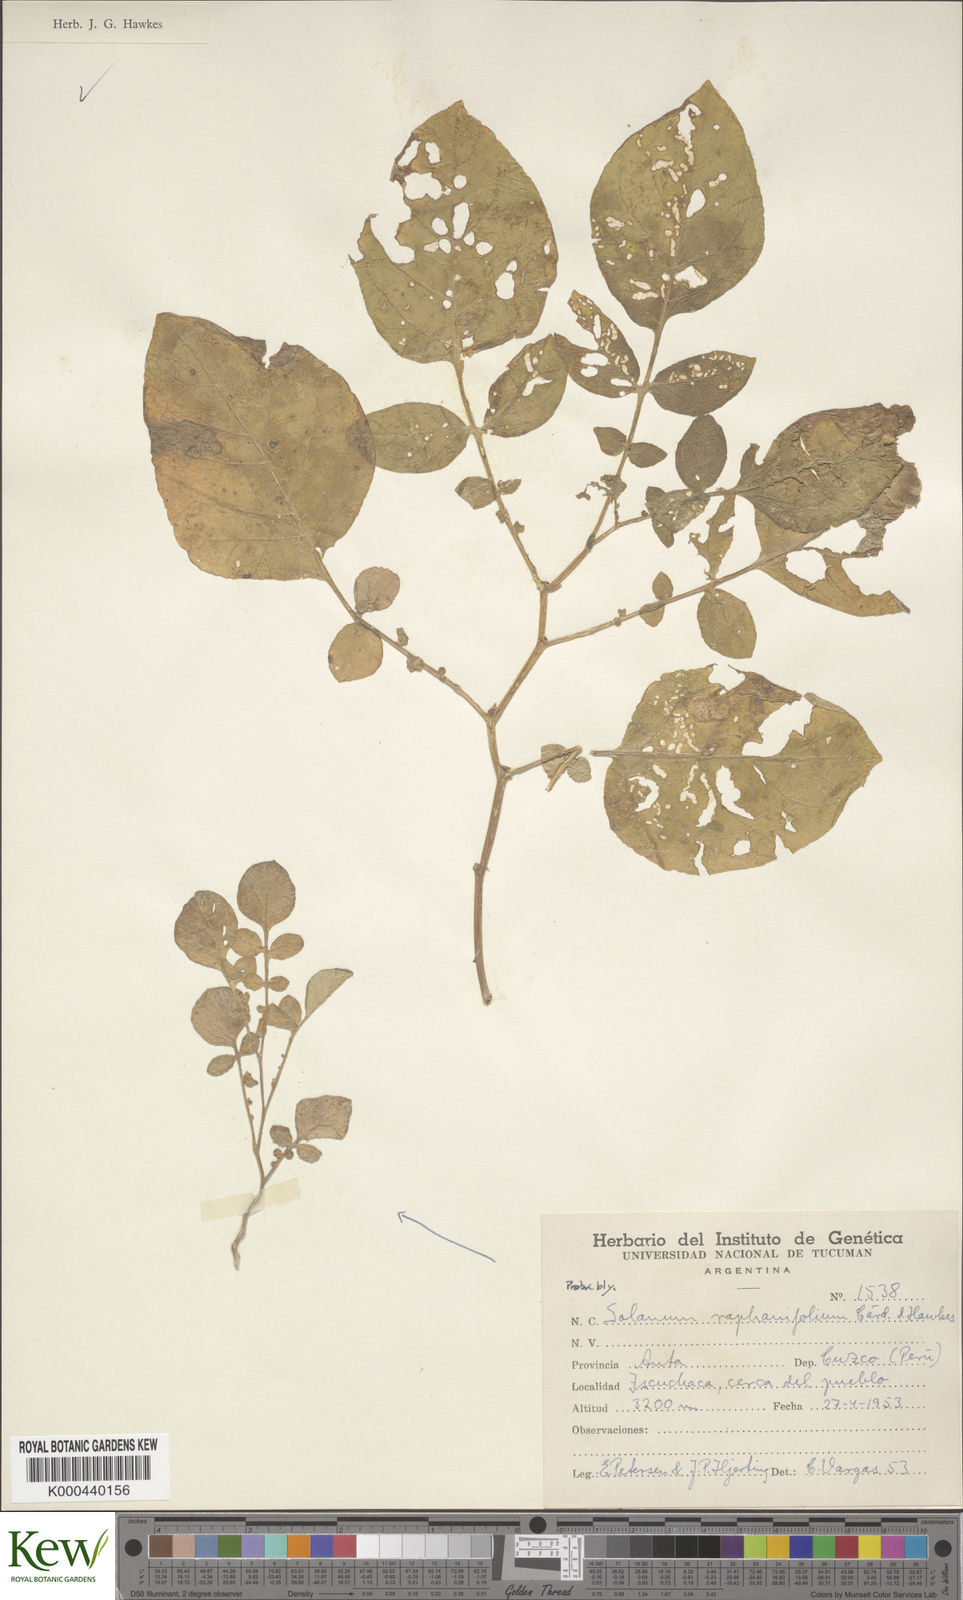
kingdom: Plantae
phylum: Tracheophyta
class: Magnoliopsida
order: Solanales
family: Solanaceae
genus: Solanum
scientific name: Solanum raphanifolium
